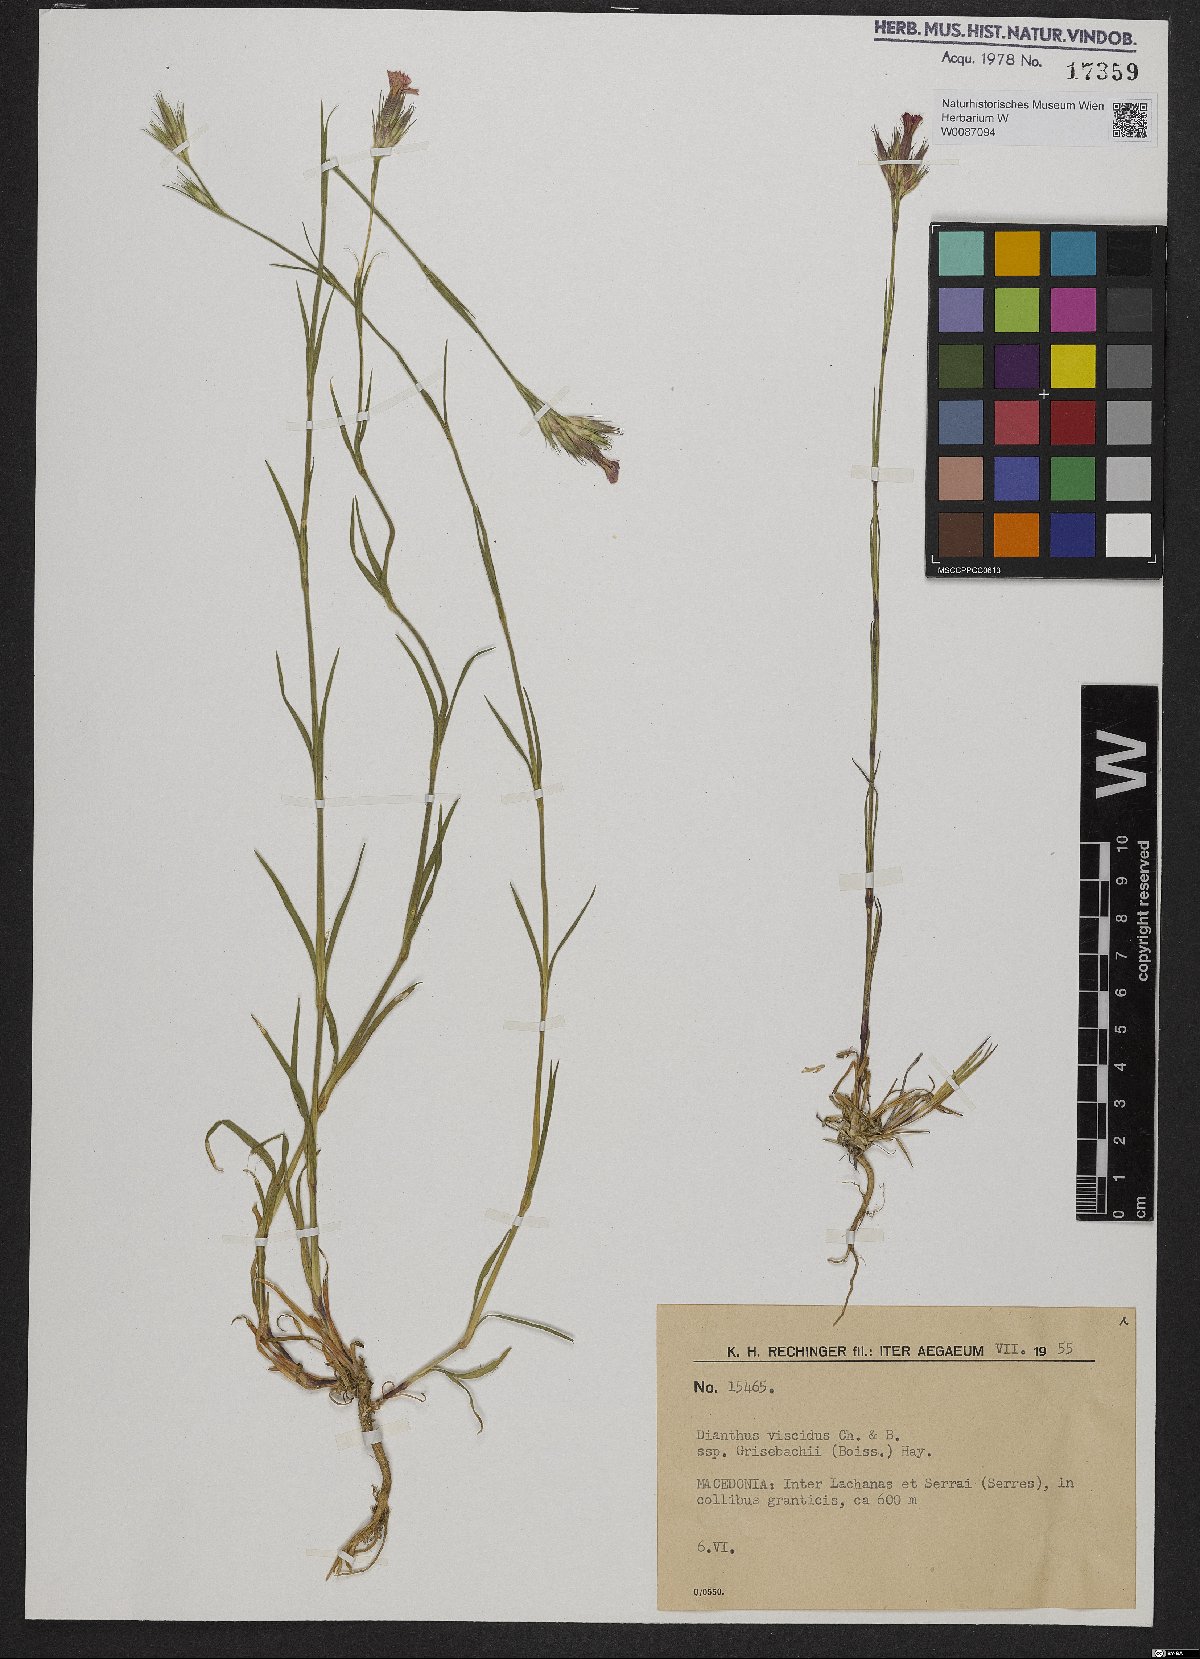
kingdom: Plantae
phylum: Tracheophyta
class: Magnoliopsida
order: Caryophyllales
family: Caryophyllaceae
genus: Dianthus
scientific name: Dianthus viscidus
